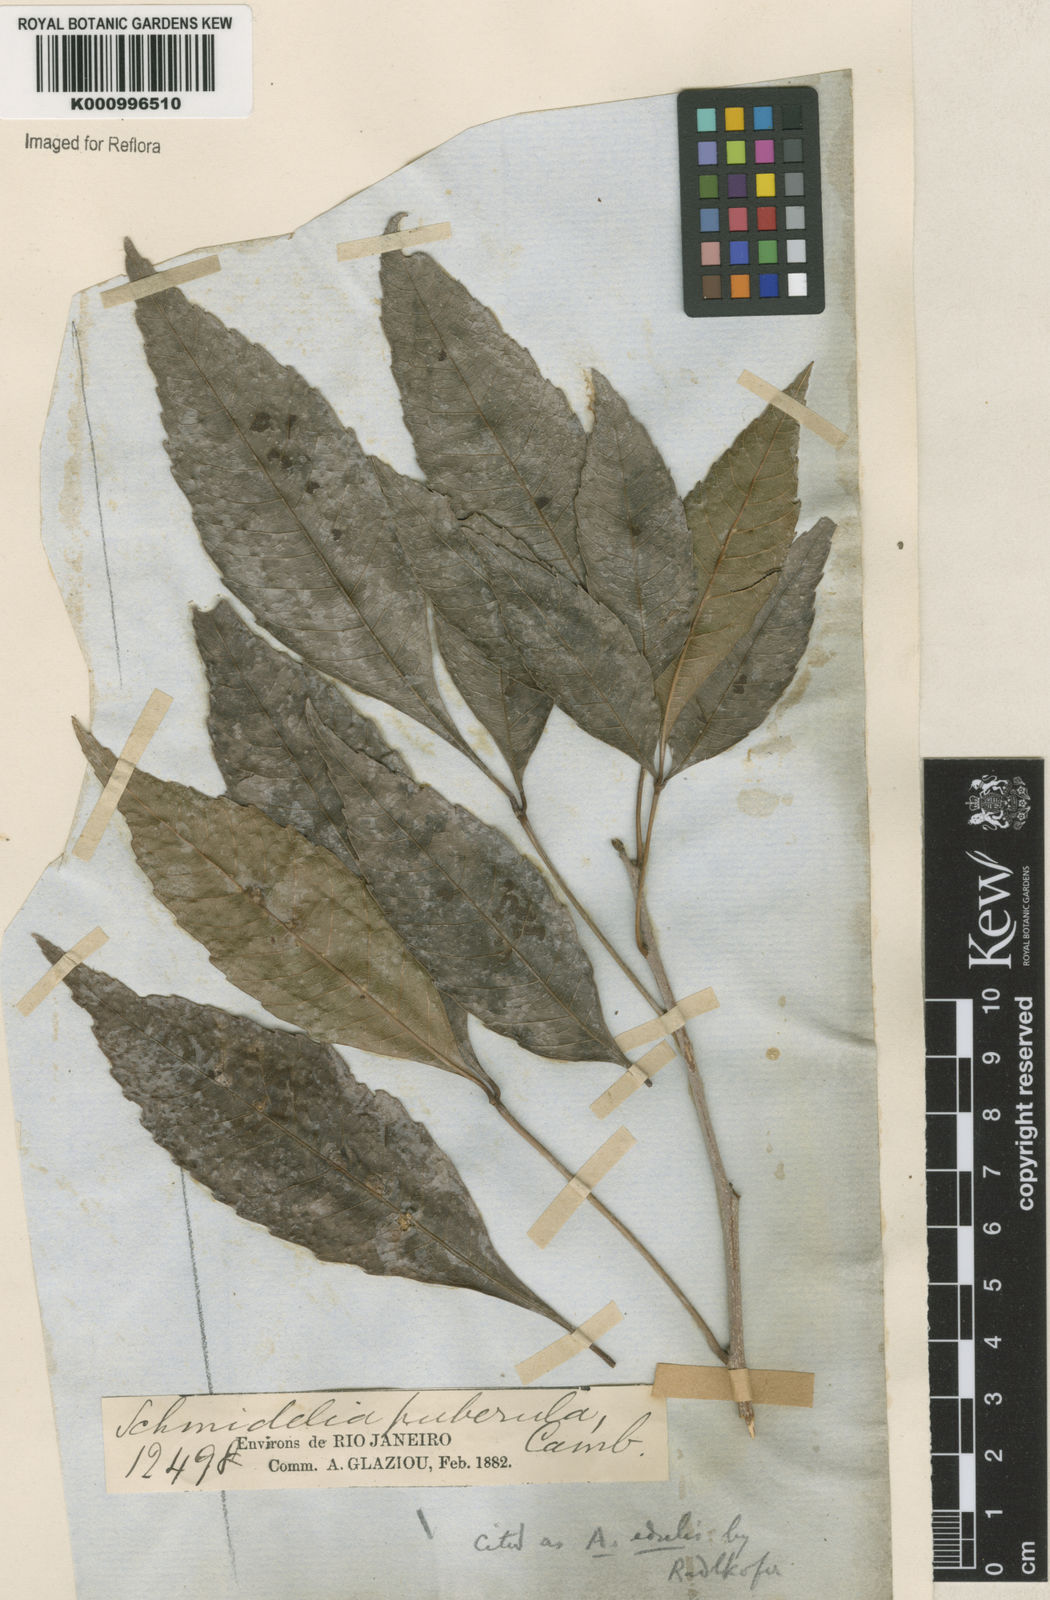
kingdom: Plantae
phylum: Tracheophyta
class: Magnoliopsida
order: Sapindales
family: Sapindaceae
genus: Allophylus
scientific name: Allophylus edulis
